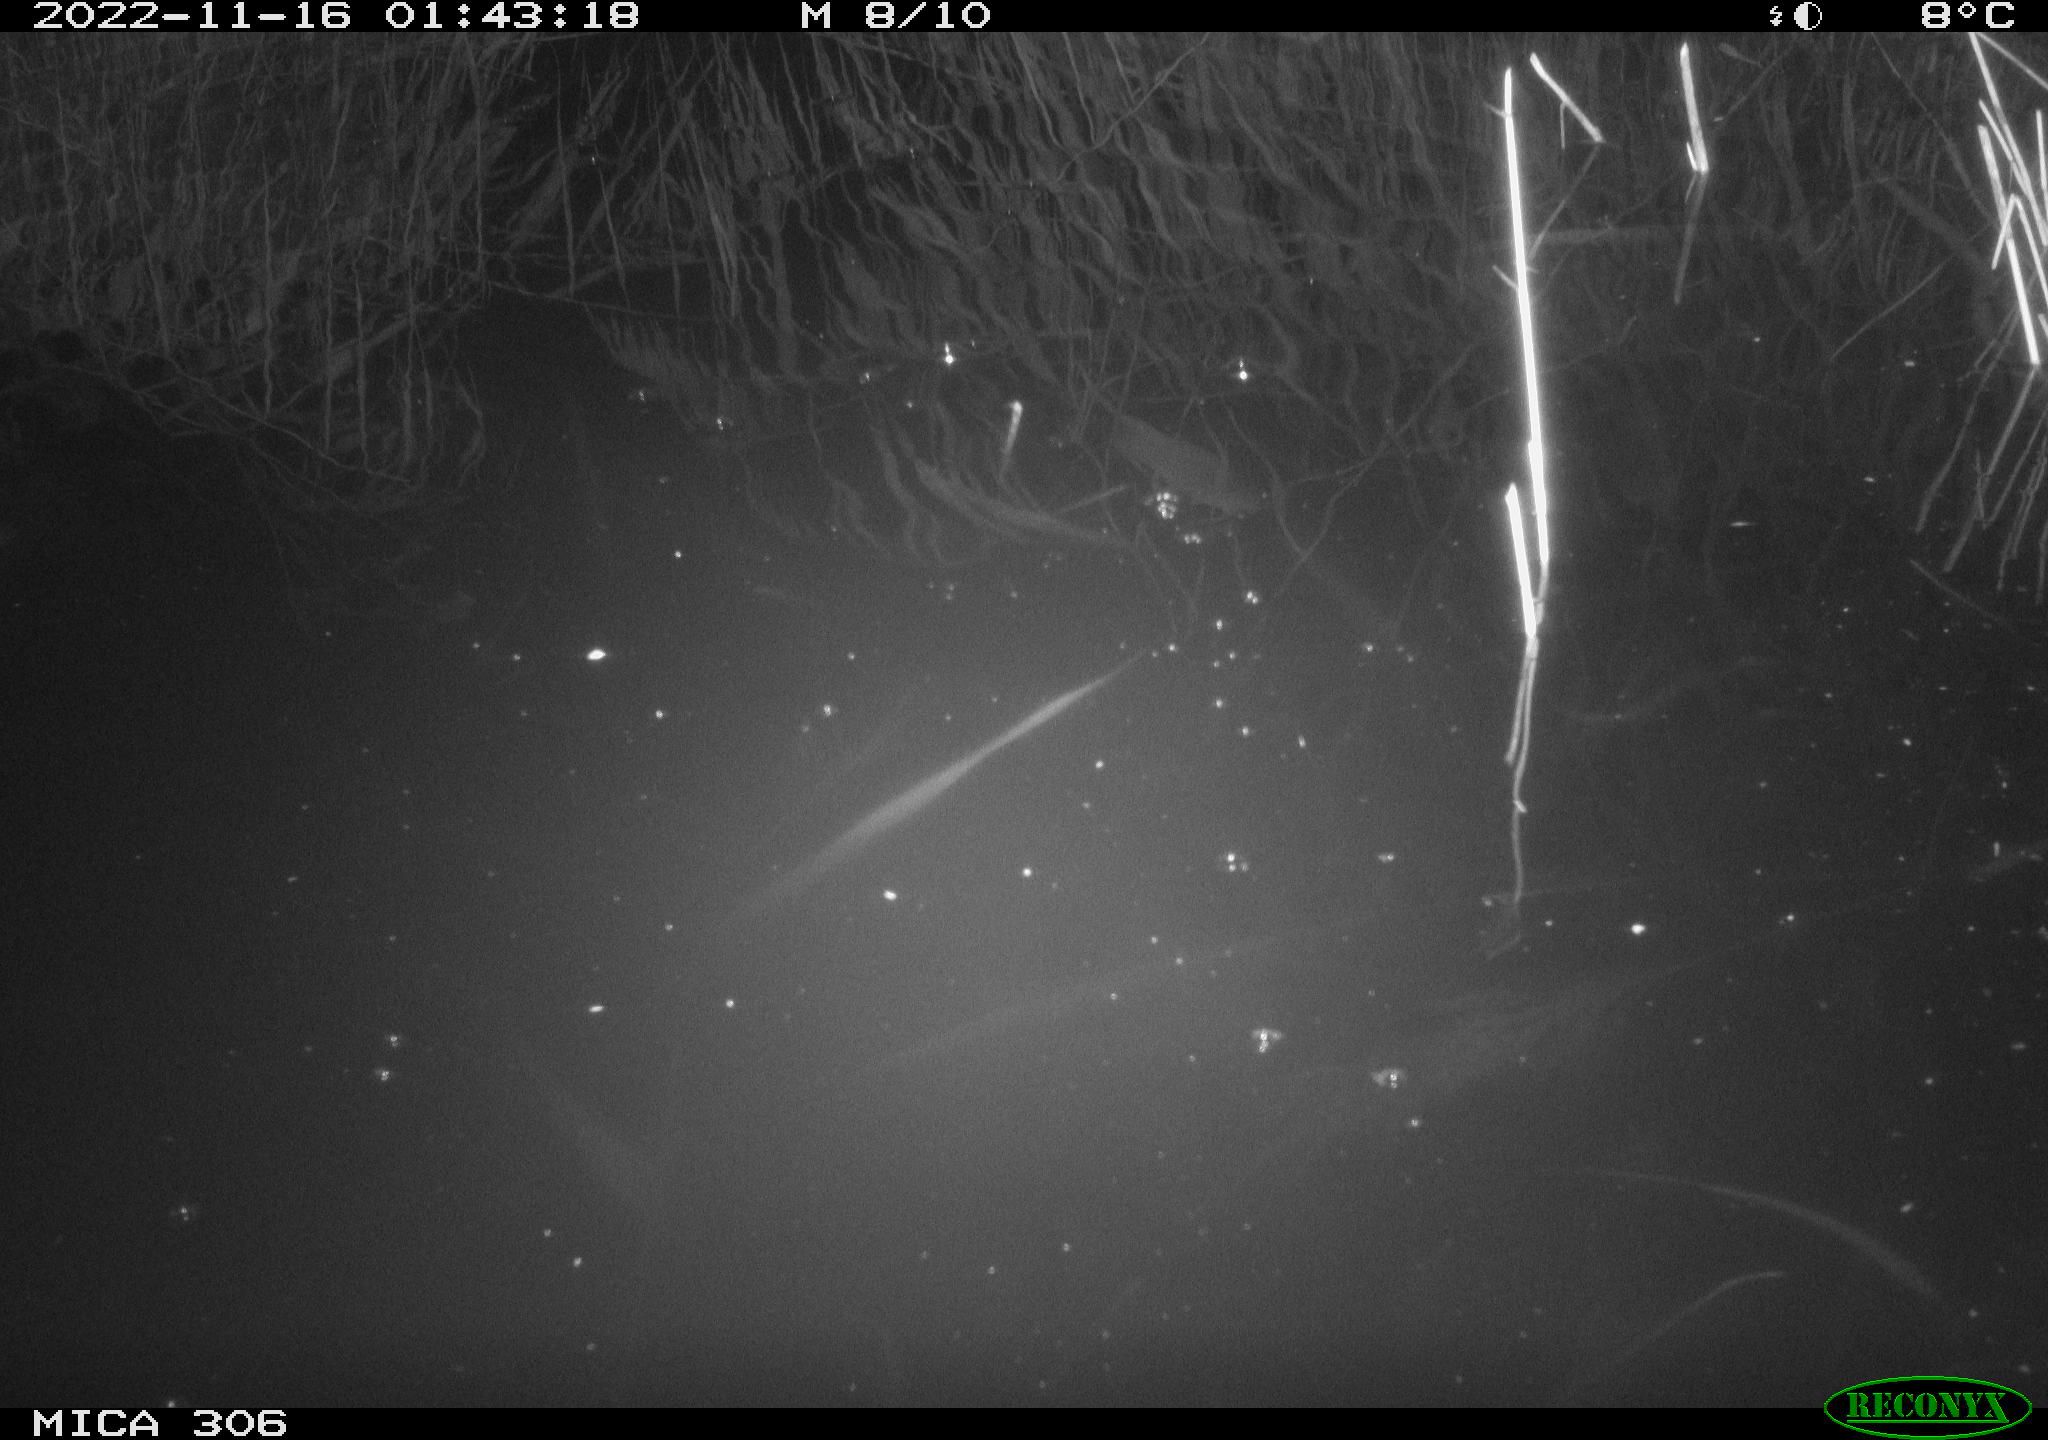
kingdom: Animalia
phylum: Chordata
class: Mammalia
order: Rodentia
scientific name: Rodentia
